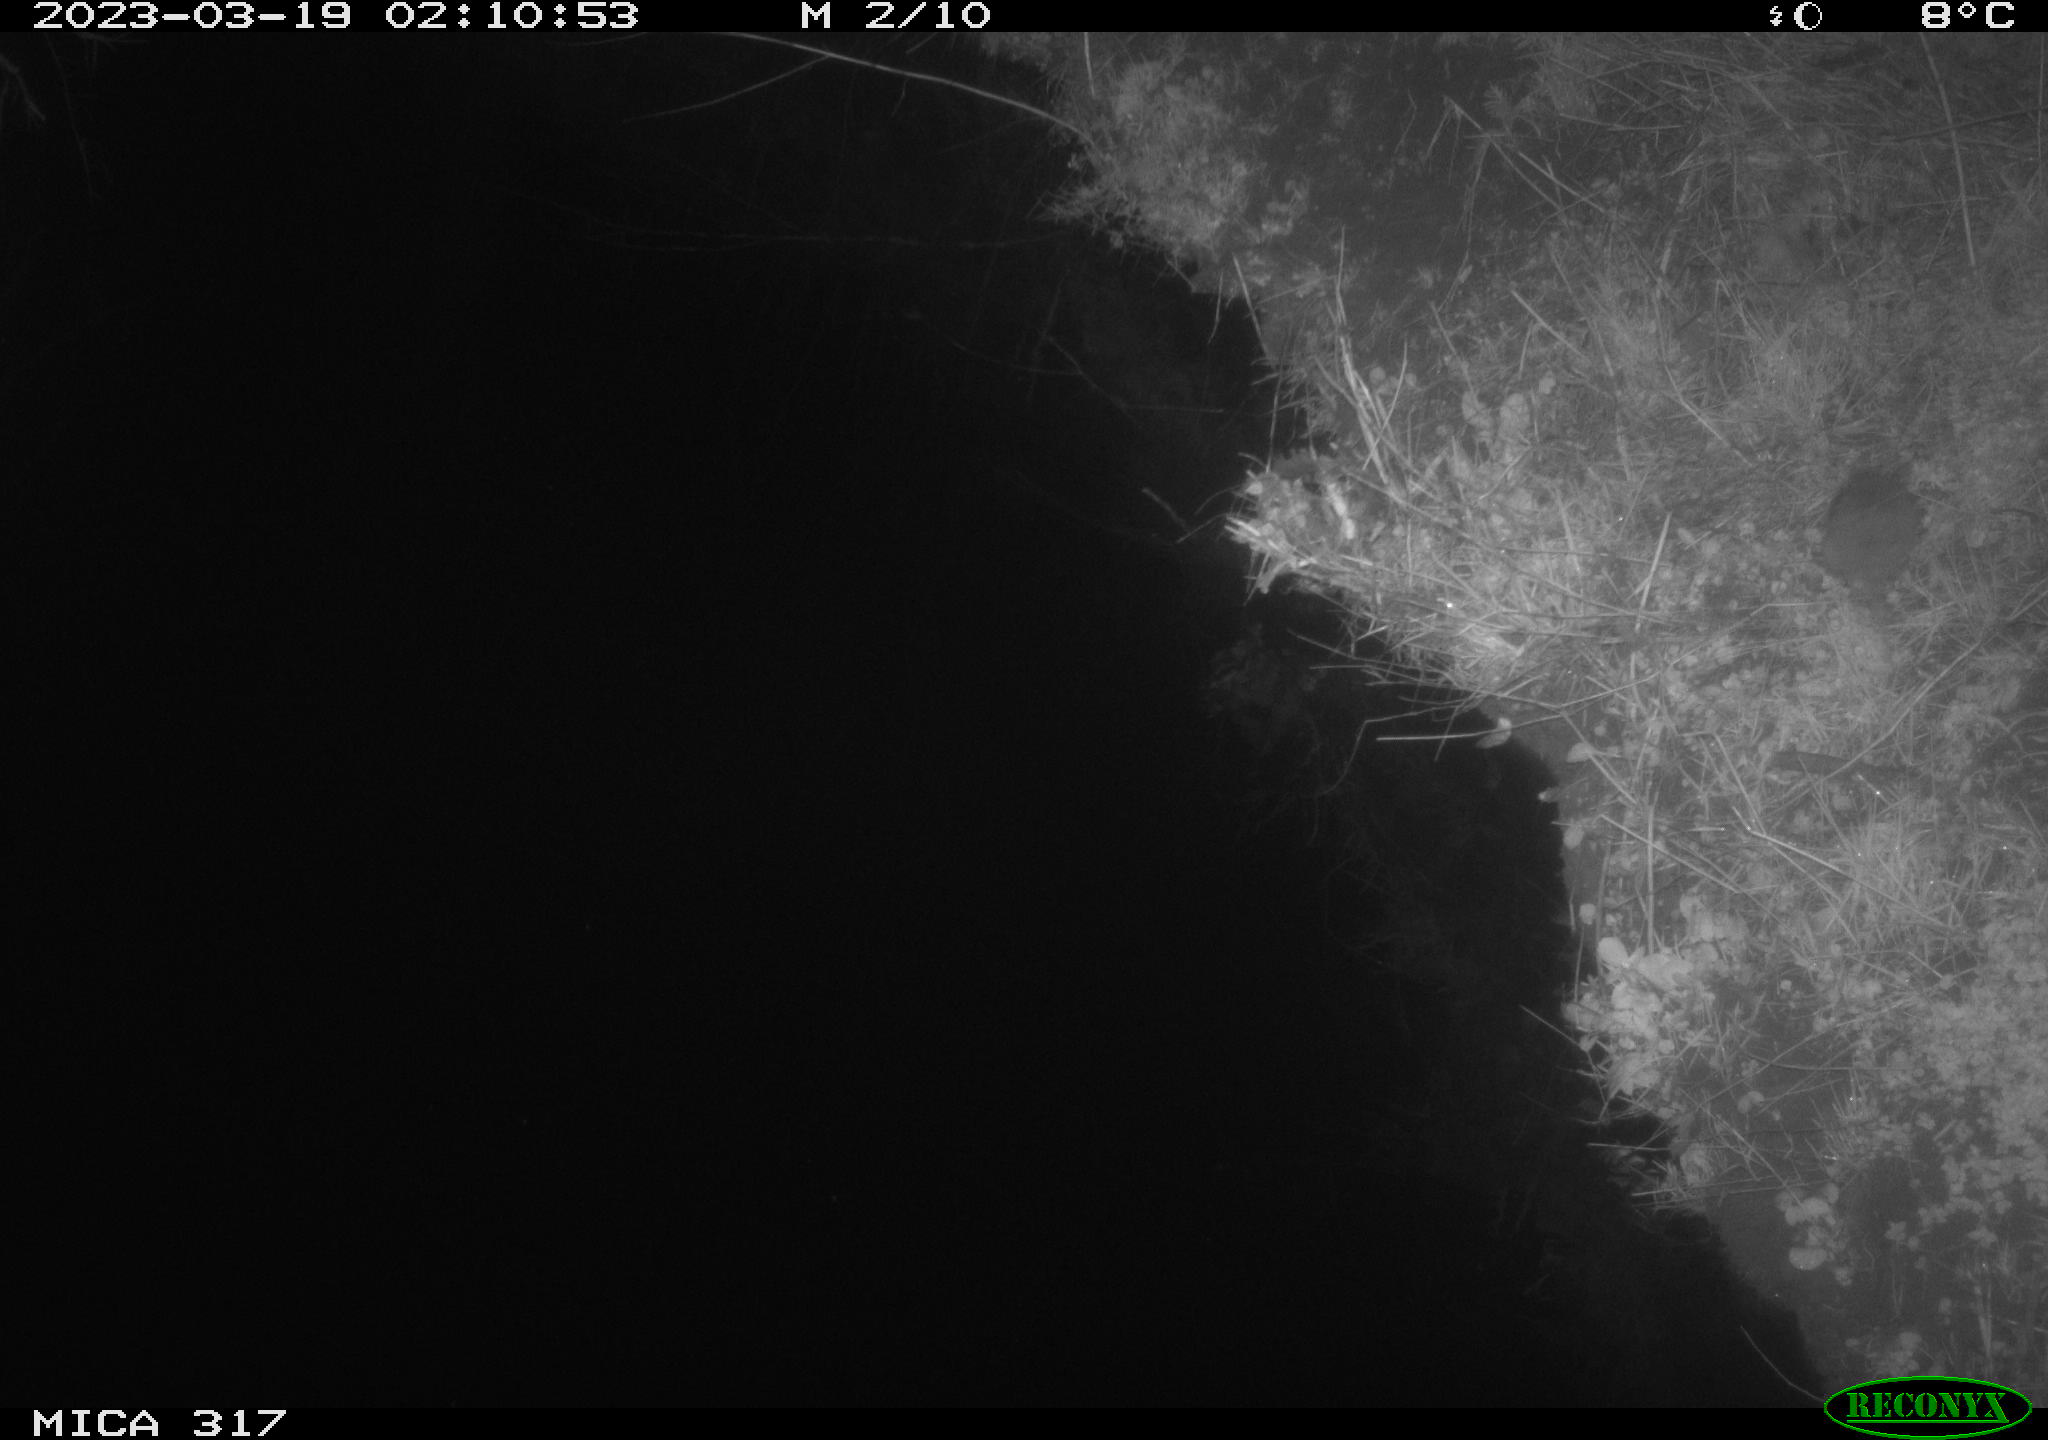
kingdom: Animalia
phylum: Chordata
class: Mammalia
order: Rodentia
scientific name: Rodentia
